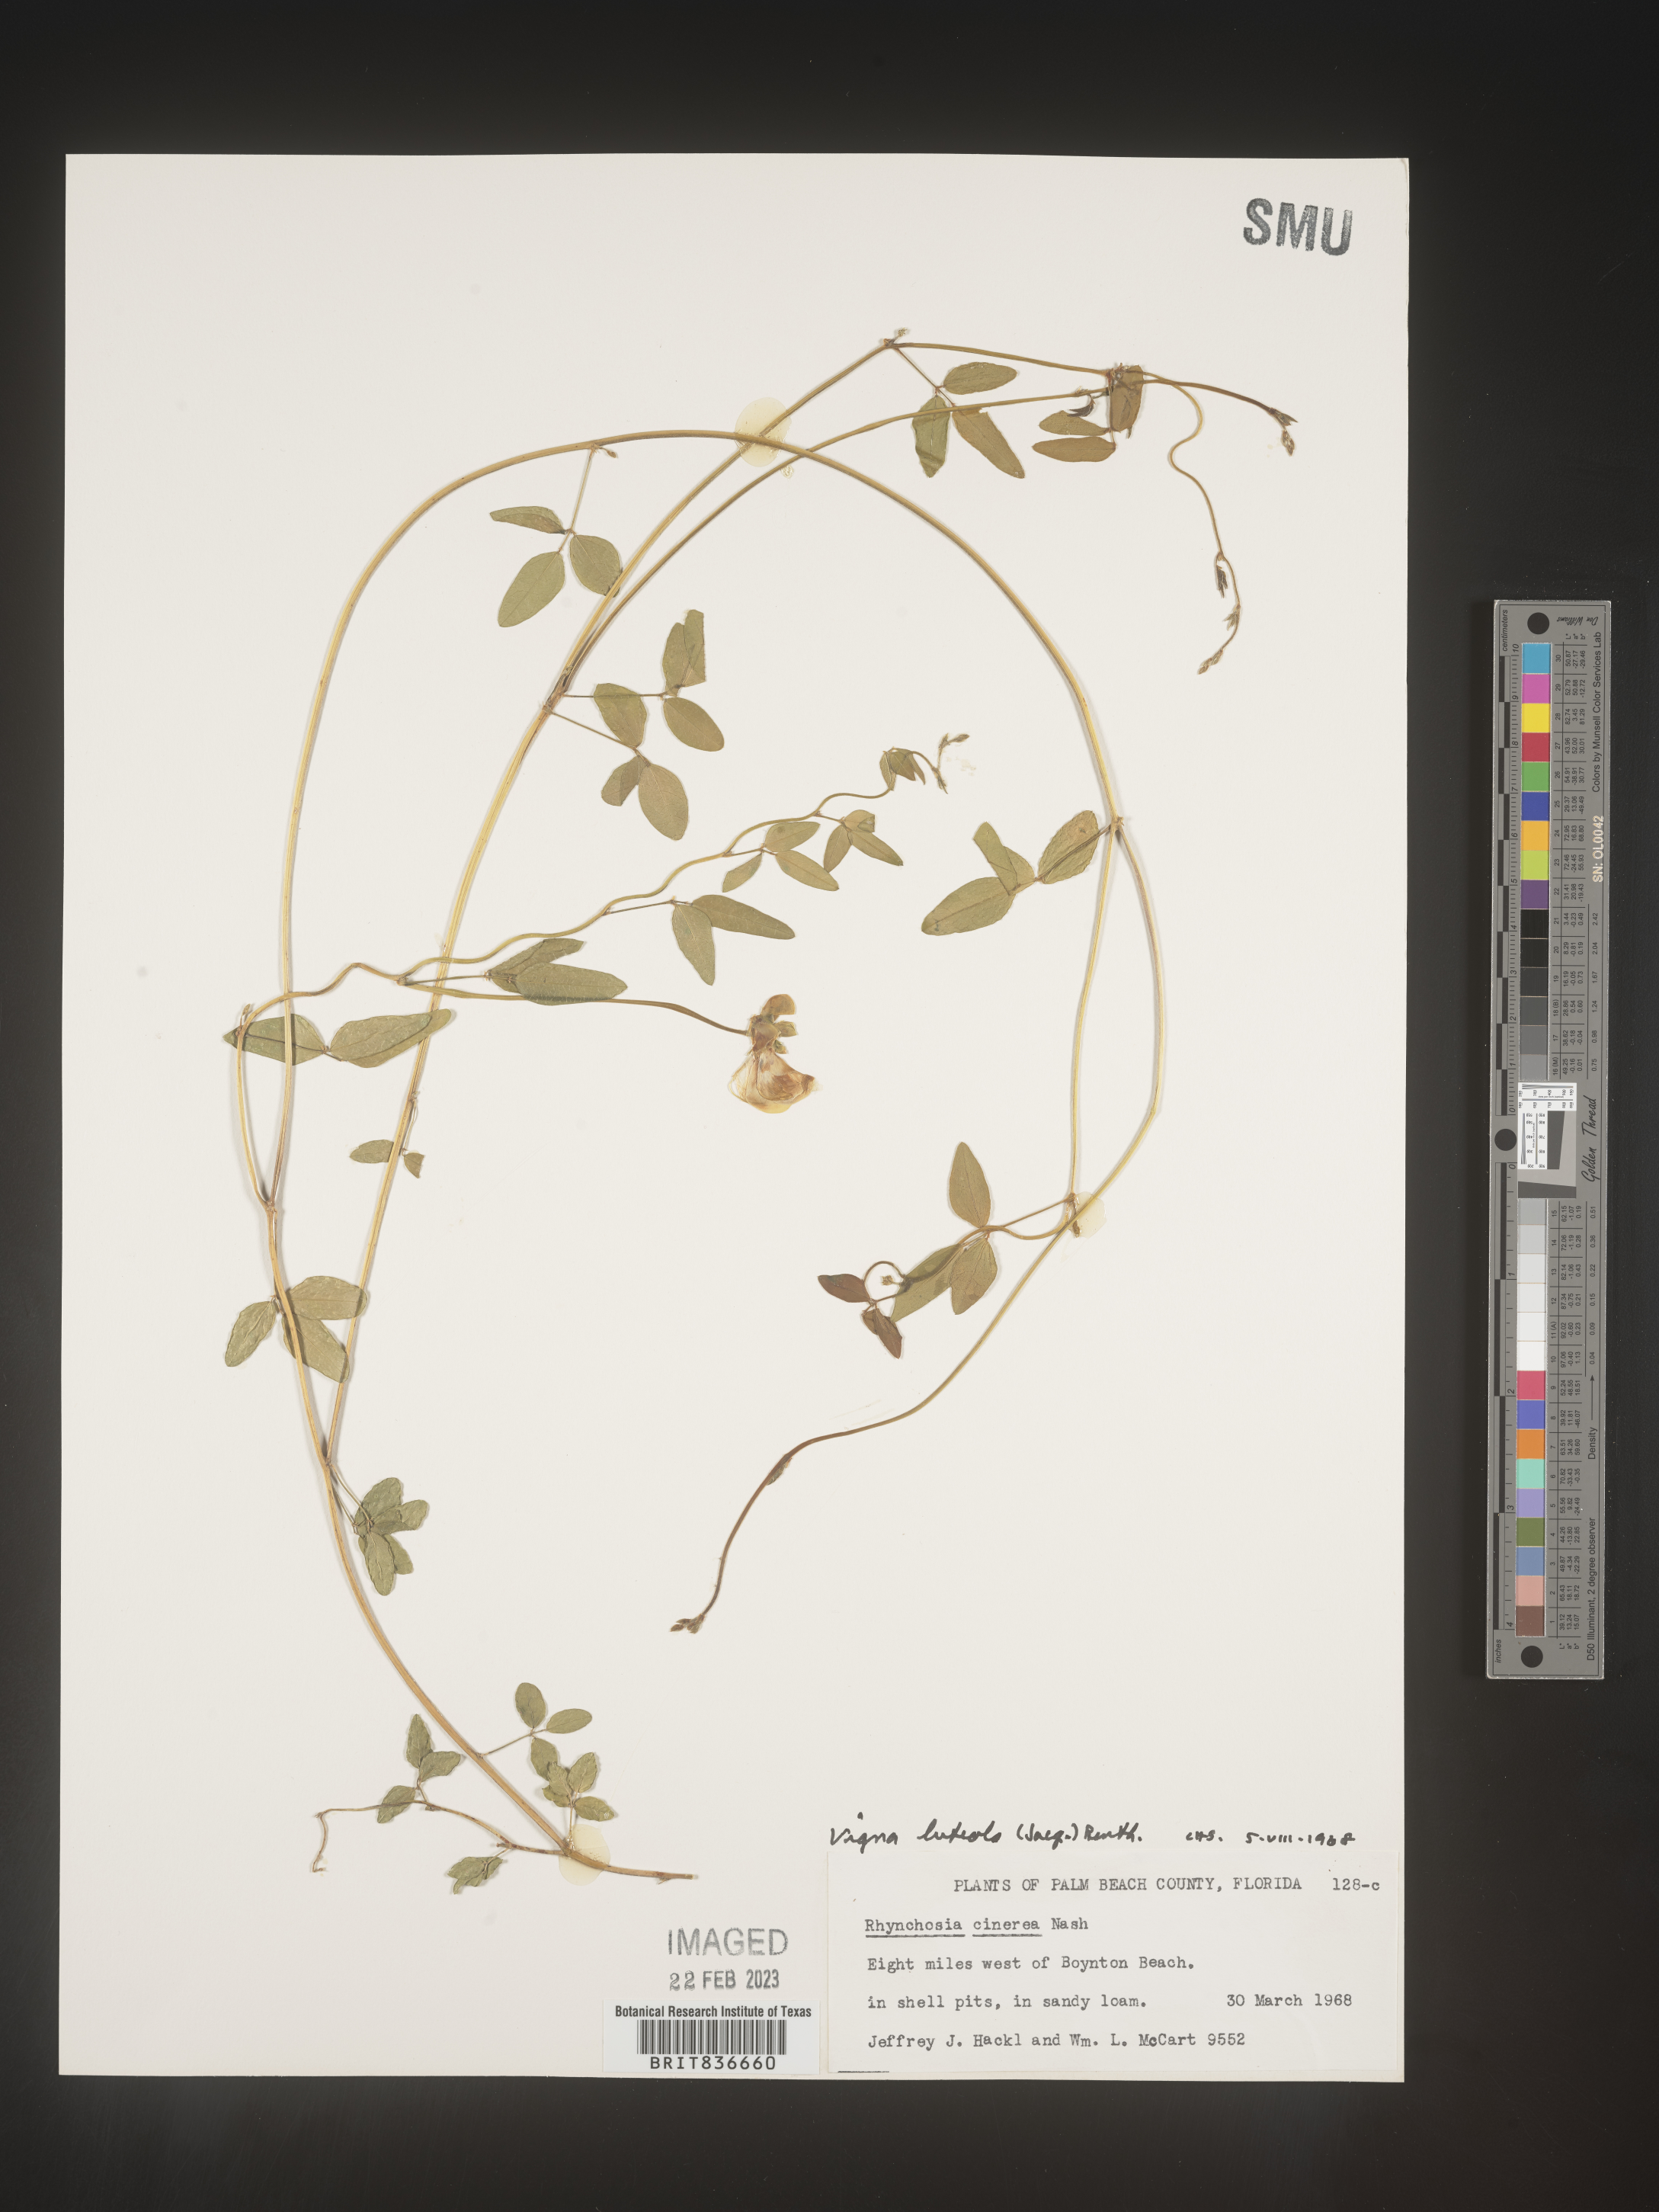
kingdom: Plantae
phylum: Tracheophyta
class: Magnoliopsida
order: Fabales
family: Fabaceae
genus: Vigna
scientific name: Vigna luteola
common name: Hairypod cowpea
